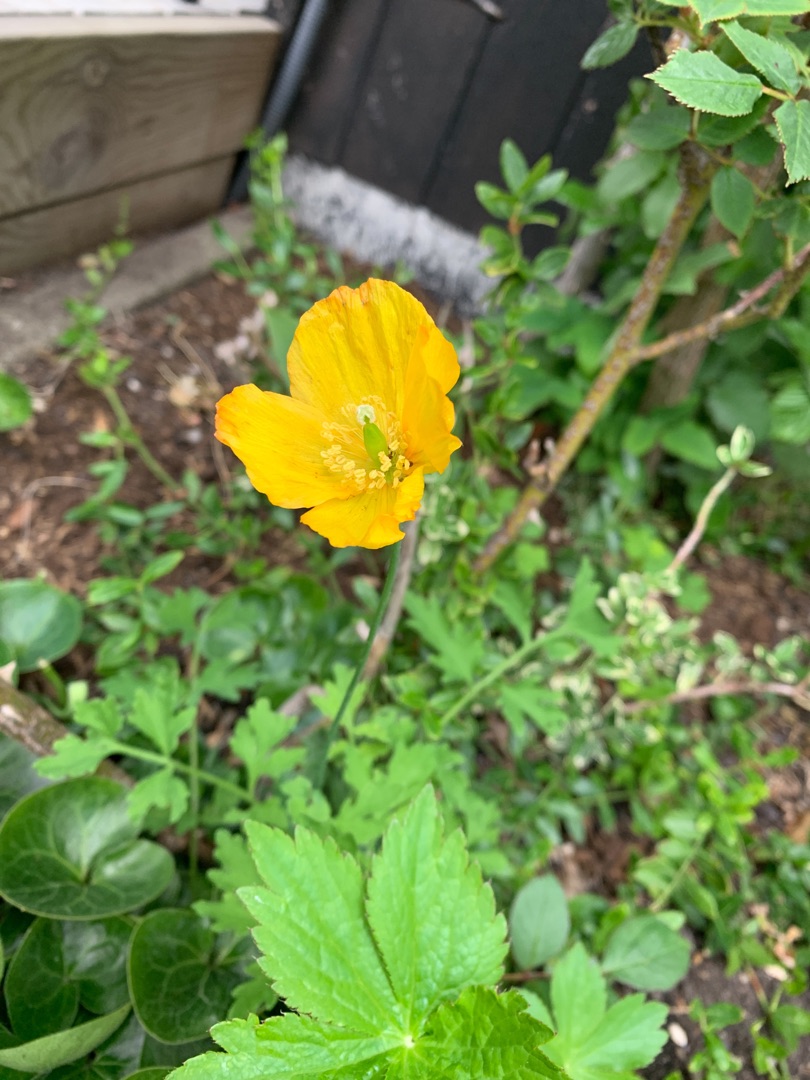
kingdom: Plantae
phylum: Tracheophyta
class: Magnoliopsida
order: Ranunculales
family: Papaveraceae
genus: Papaver
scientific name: Papaver cambricum
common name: Skov-valmue
